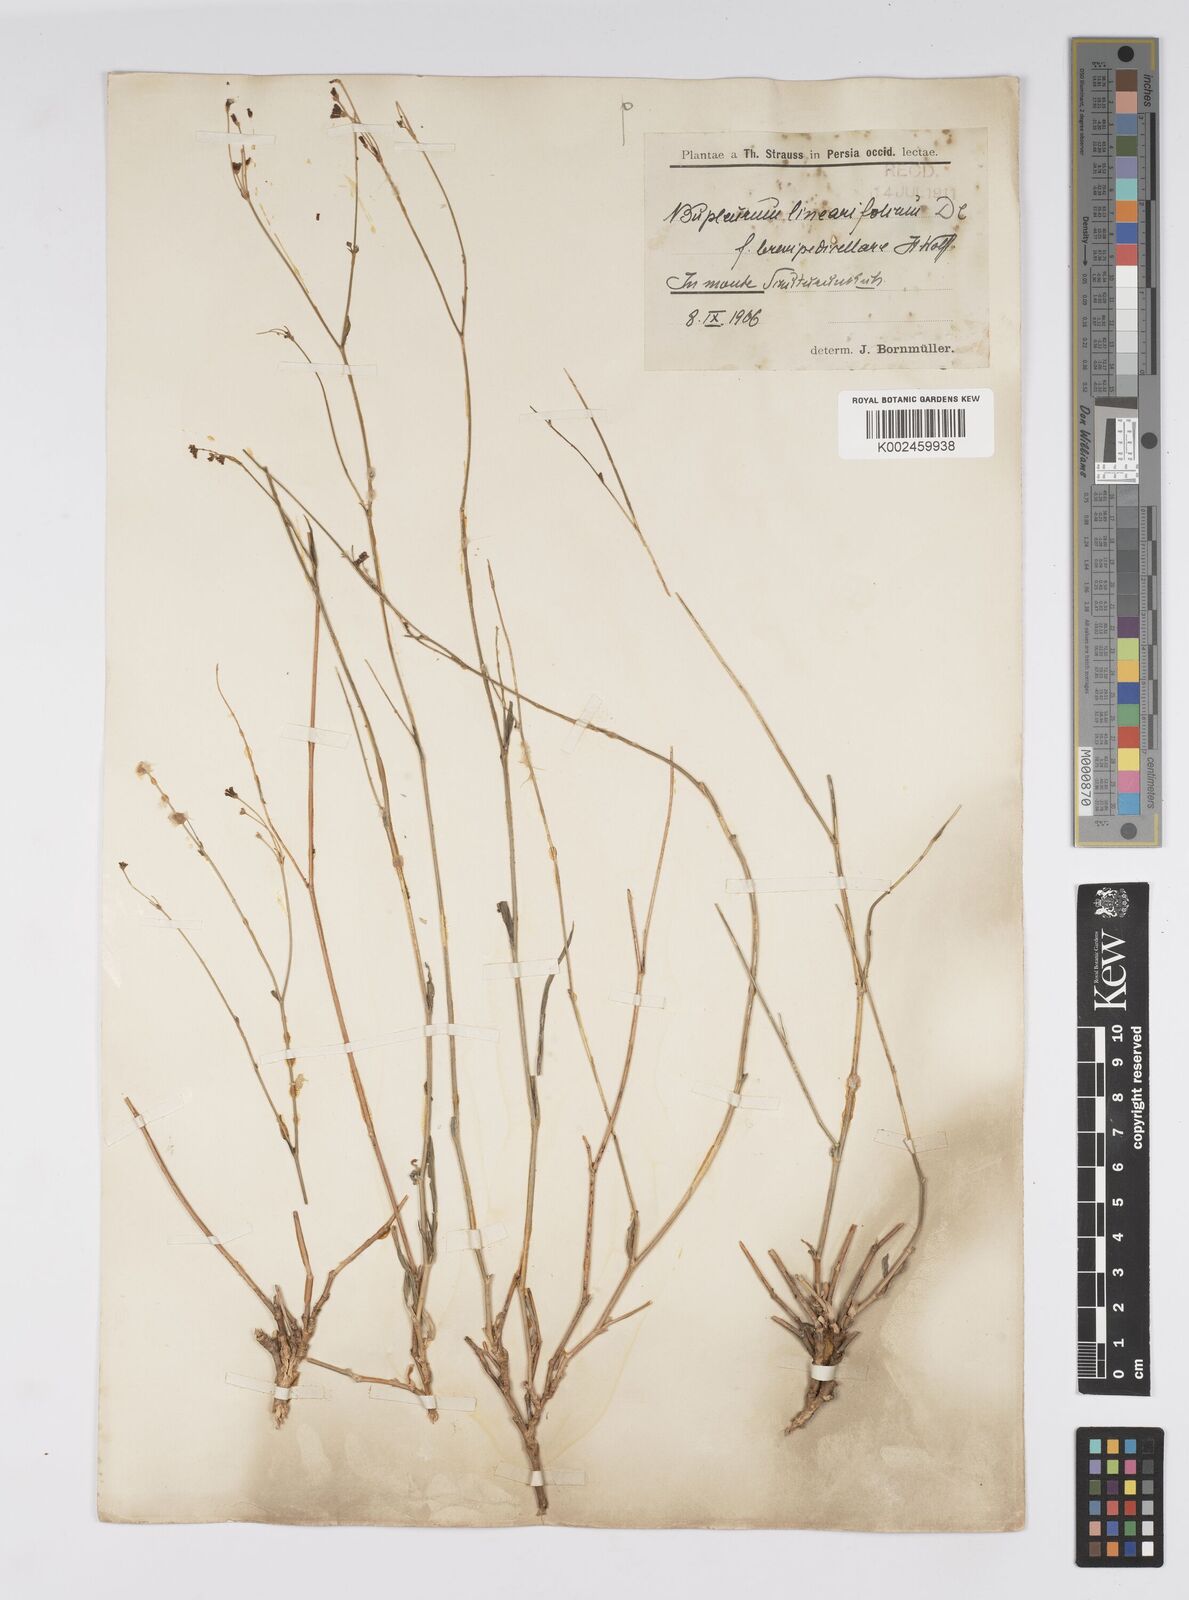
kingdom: Plantae
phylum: Tracheophyta
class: Magnoliopsida
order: Apiales
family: Apiaceae
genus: Bupleurum
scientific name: Bupleurum falcatum
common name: Sickle-leaved hare's-ear
